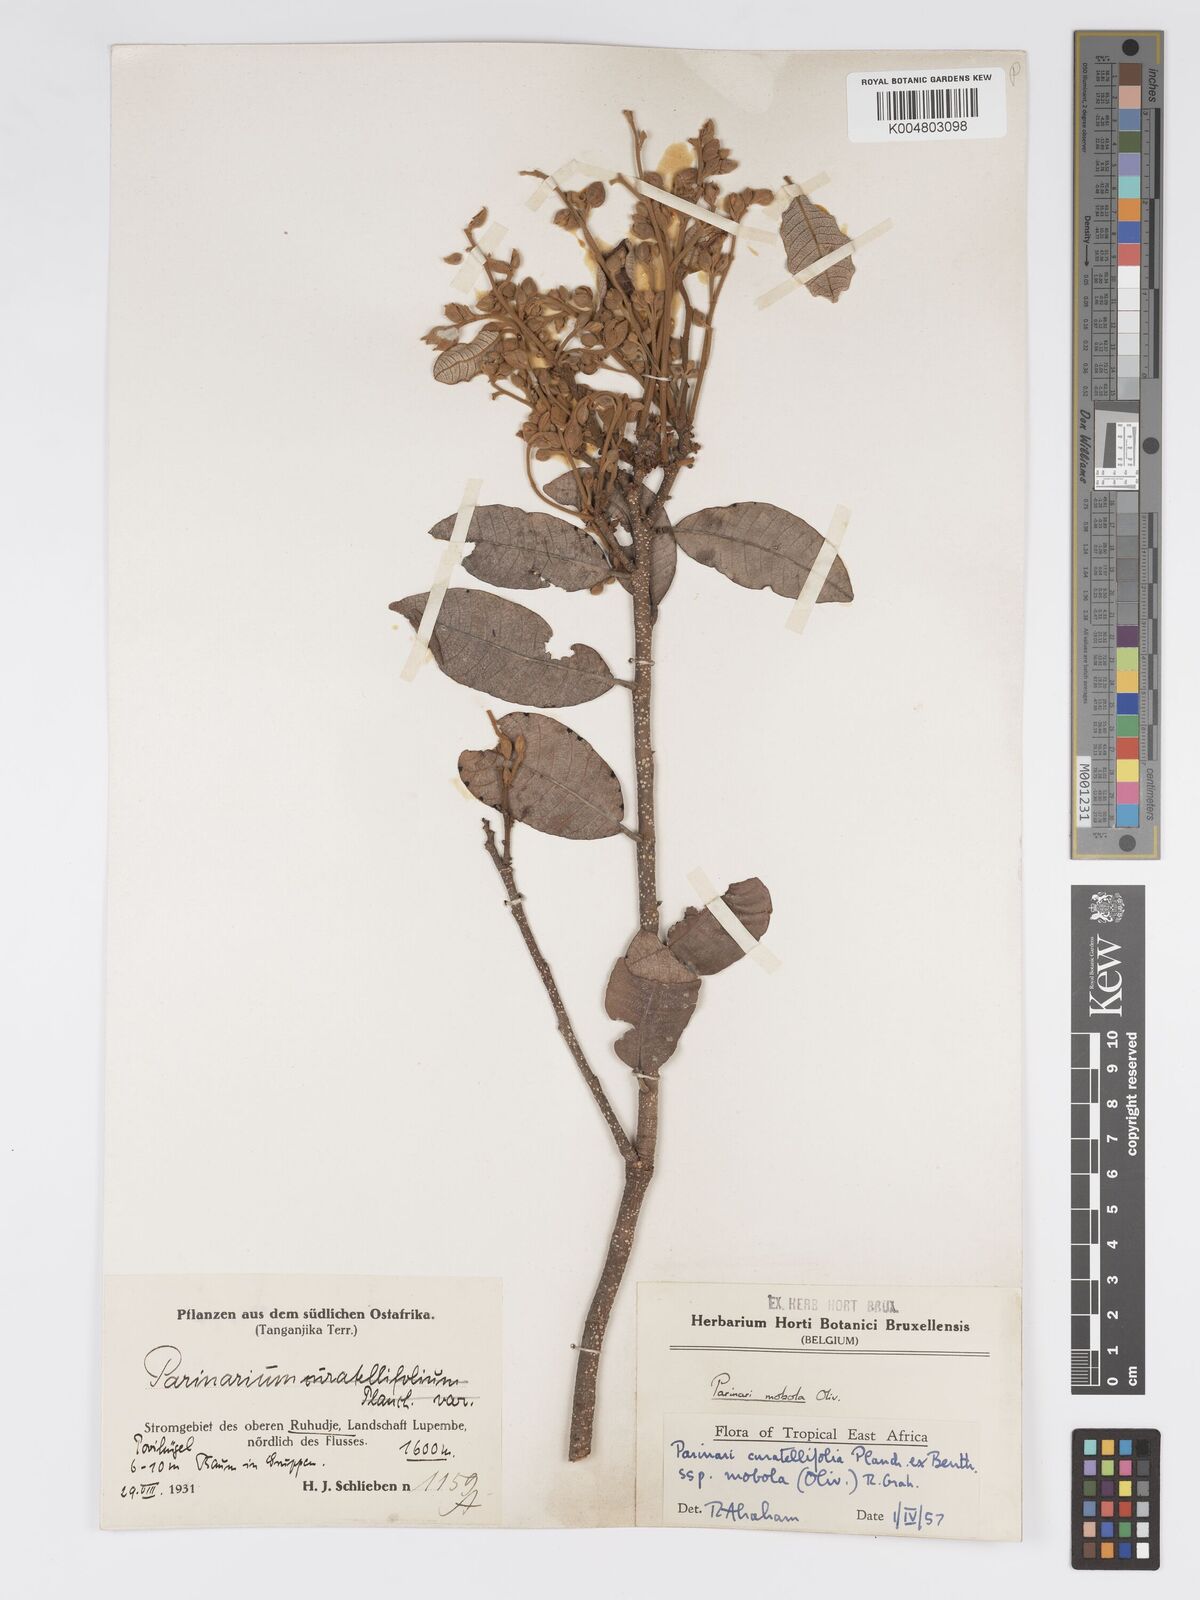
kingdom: Plantae
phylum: Tracheophyta
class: Magnoliopsida
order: Malpighiales
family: Chrysobalanaceae
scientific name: Chrysobalanaceae
